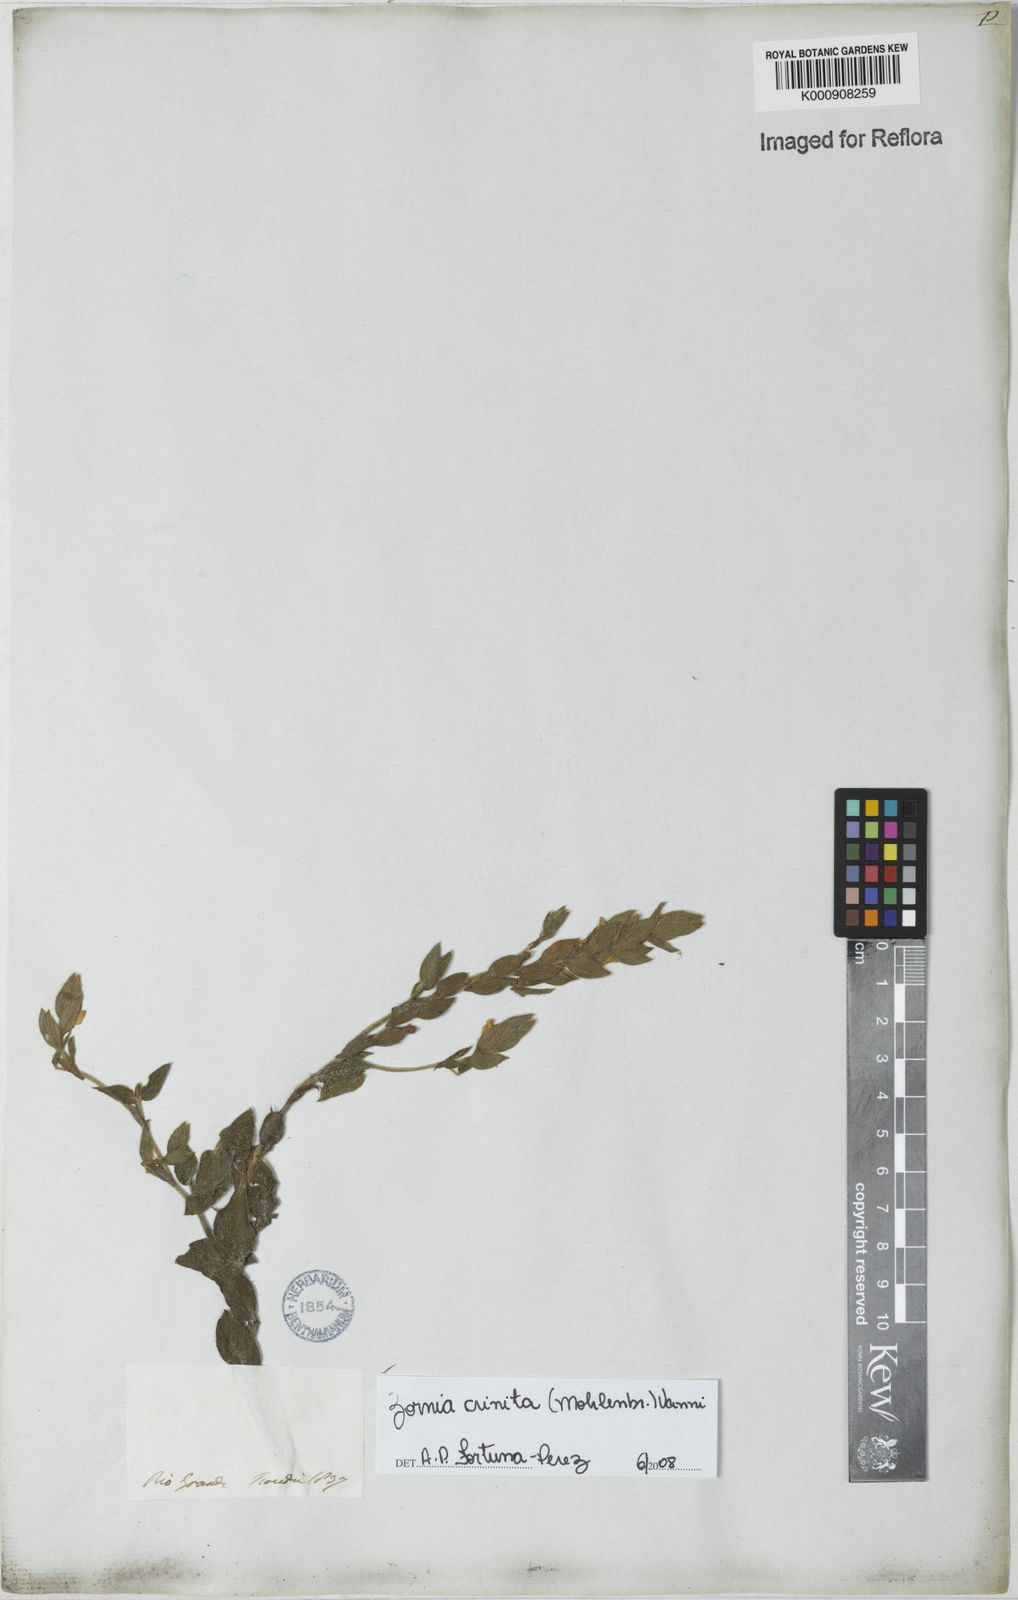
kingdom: Plantae
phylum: Tracheophyta
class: Magnoliopsida
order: Fabales
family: Fabaceae
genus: Zornia
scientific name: Zornia pardina
